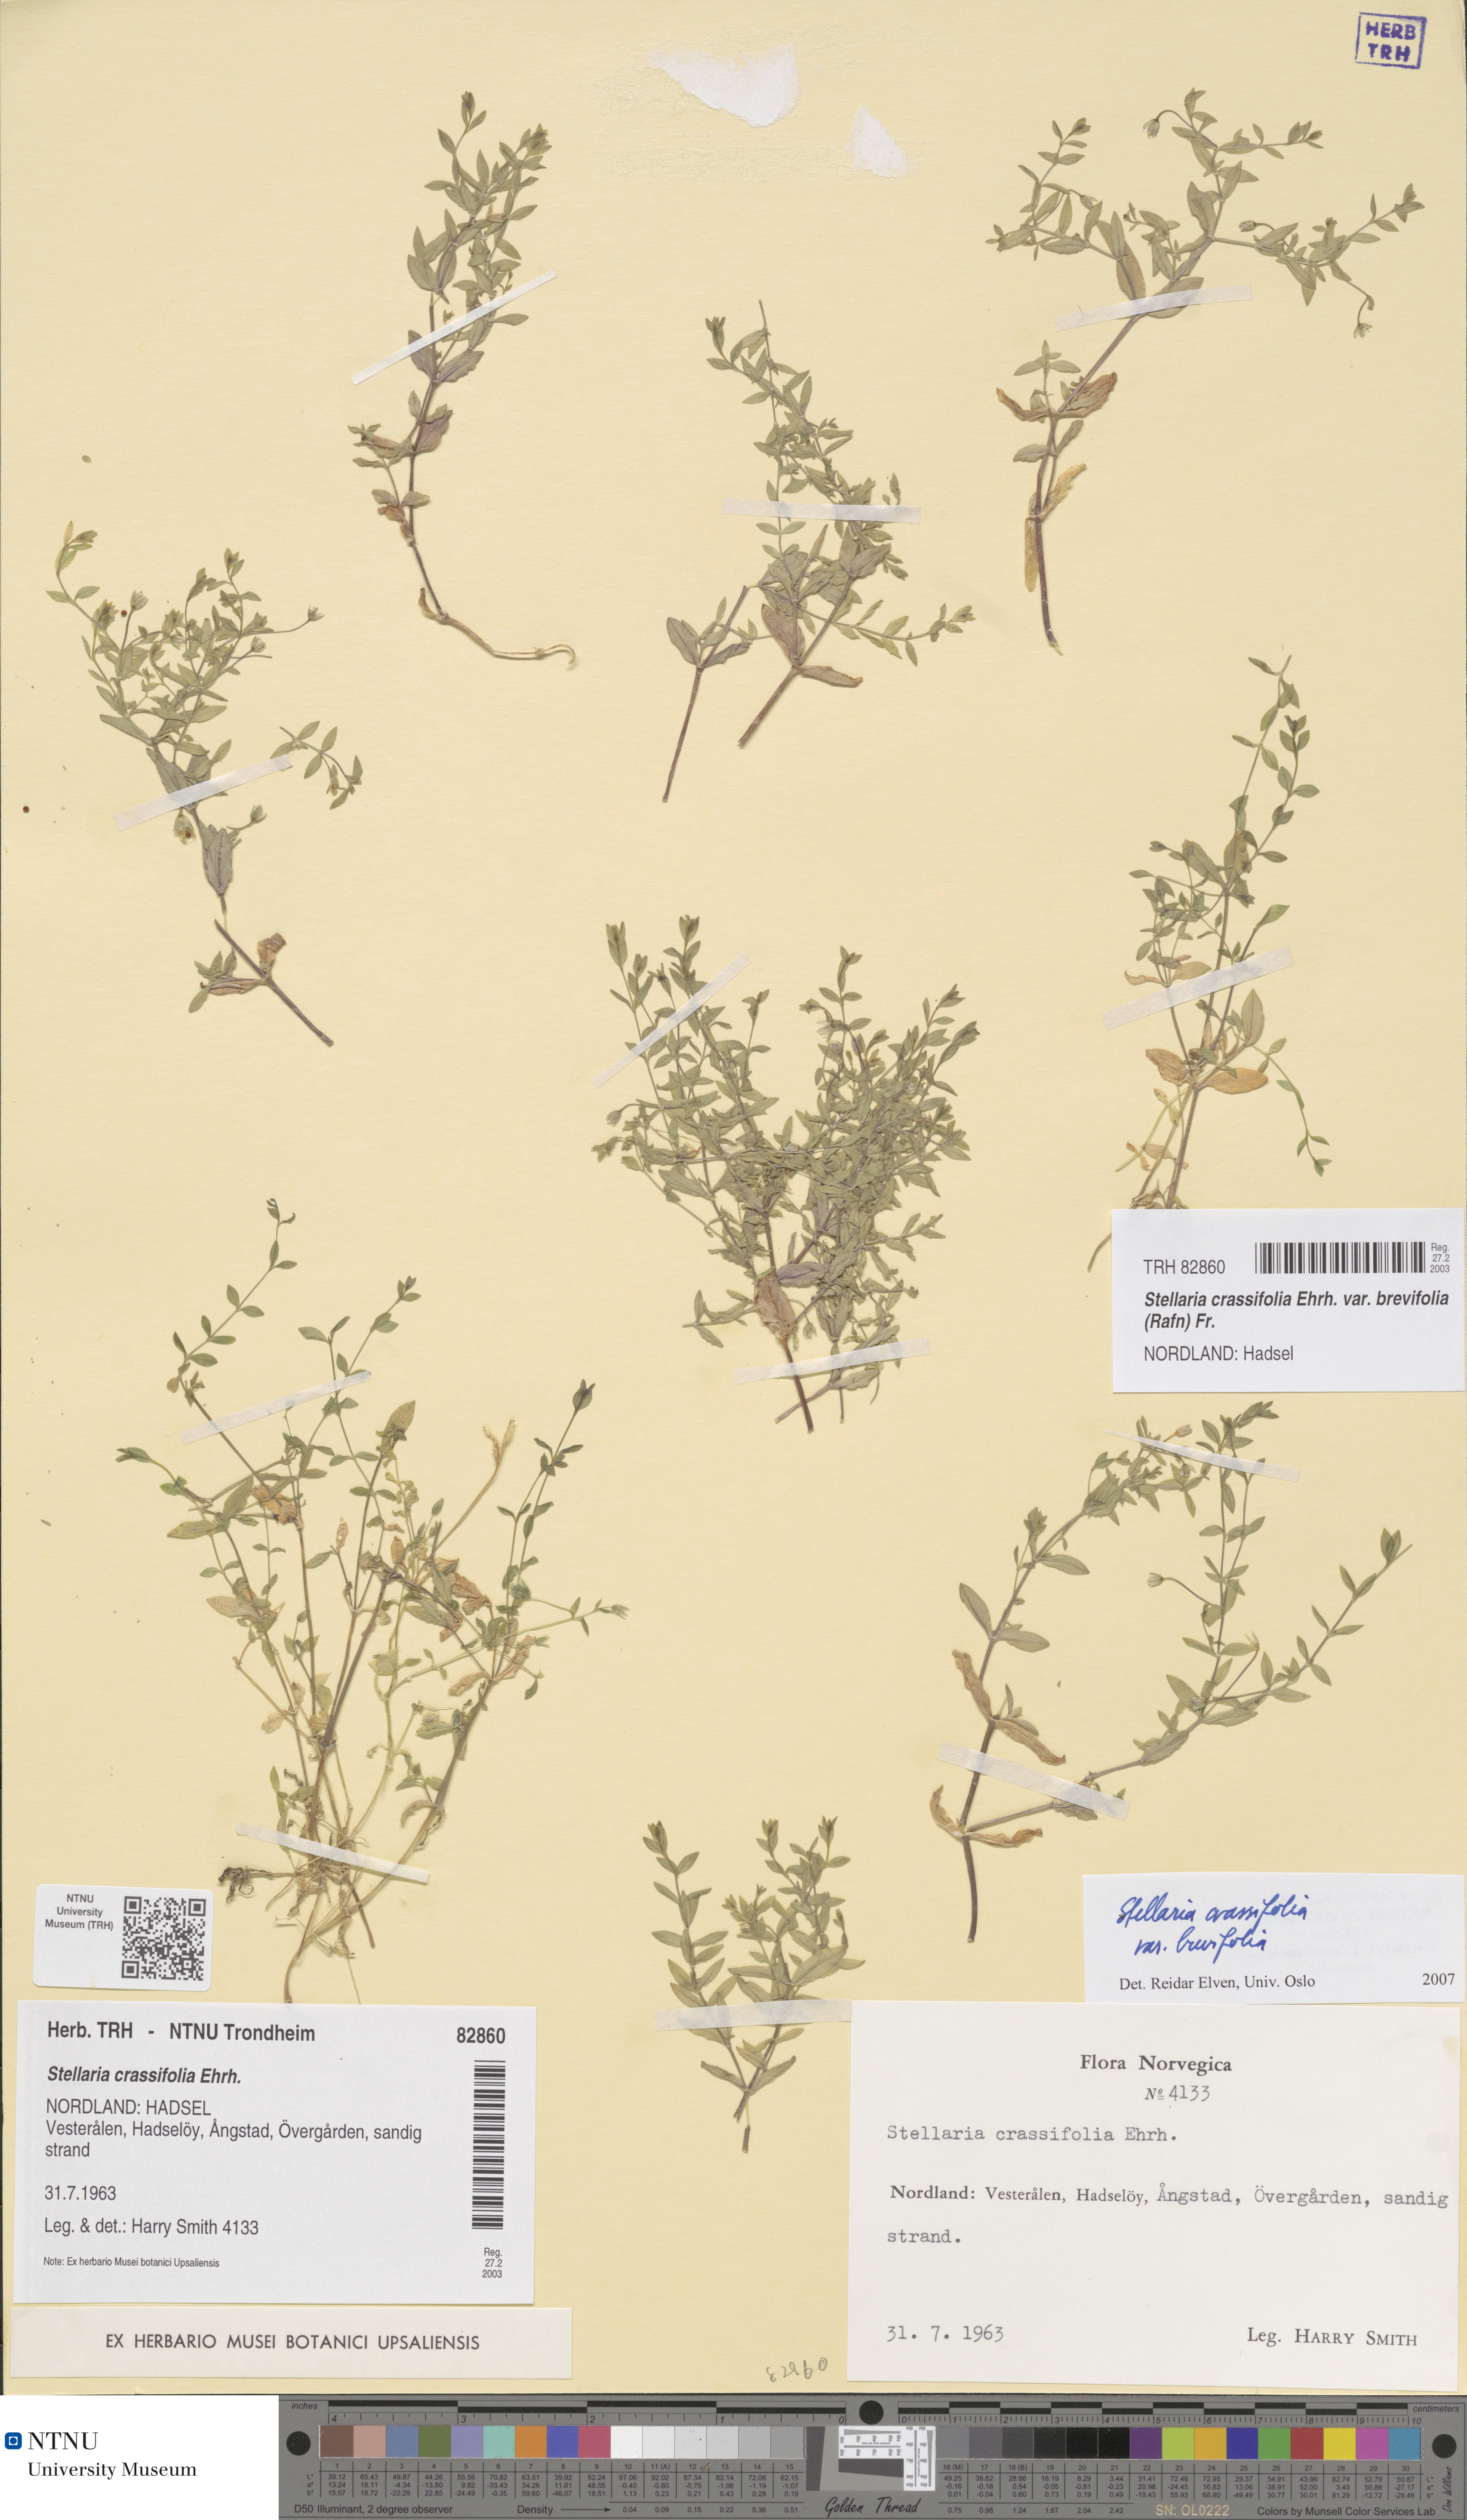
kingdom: Plantae
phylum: Tracheophyta
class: Magnoliopsida
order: Caryophyllales
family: Caryophyllaceae
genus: Stellaria
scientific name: Stellaria crassifolia
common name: Fleshy starwort
